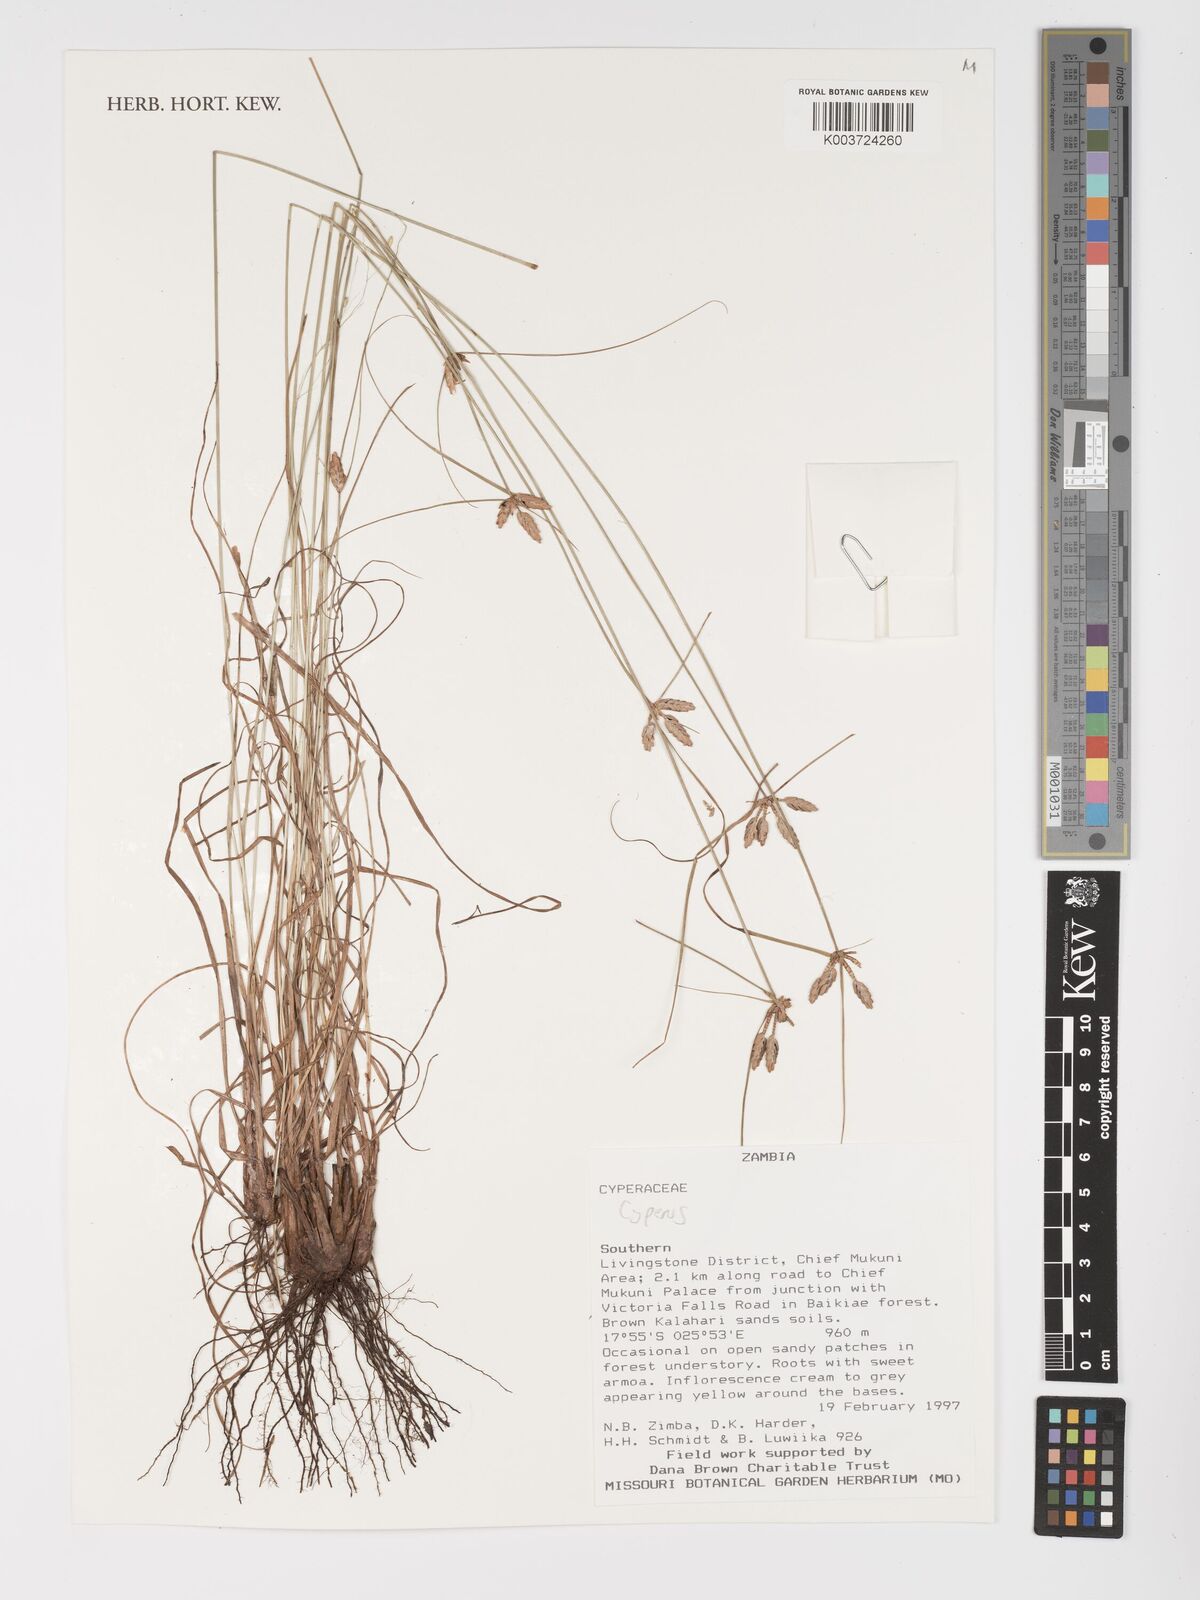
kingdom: Plantae
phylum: Tracheophyta
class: Liliopsida
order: Poales
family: Cyperaceae
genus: Cyperus
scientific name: Cyperus
